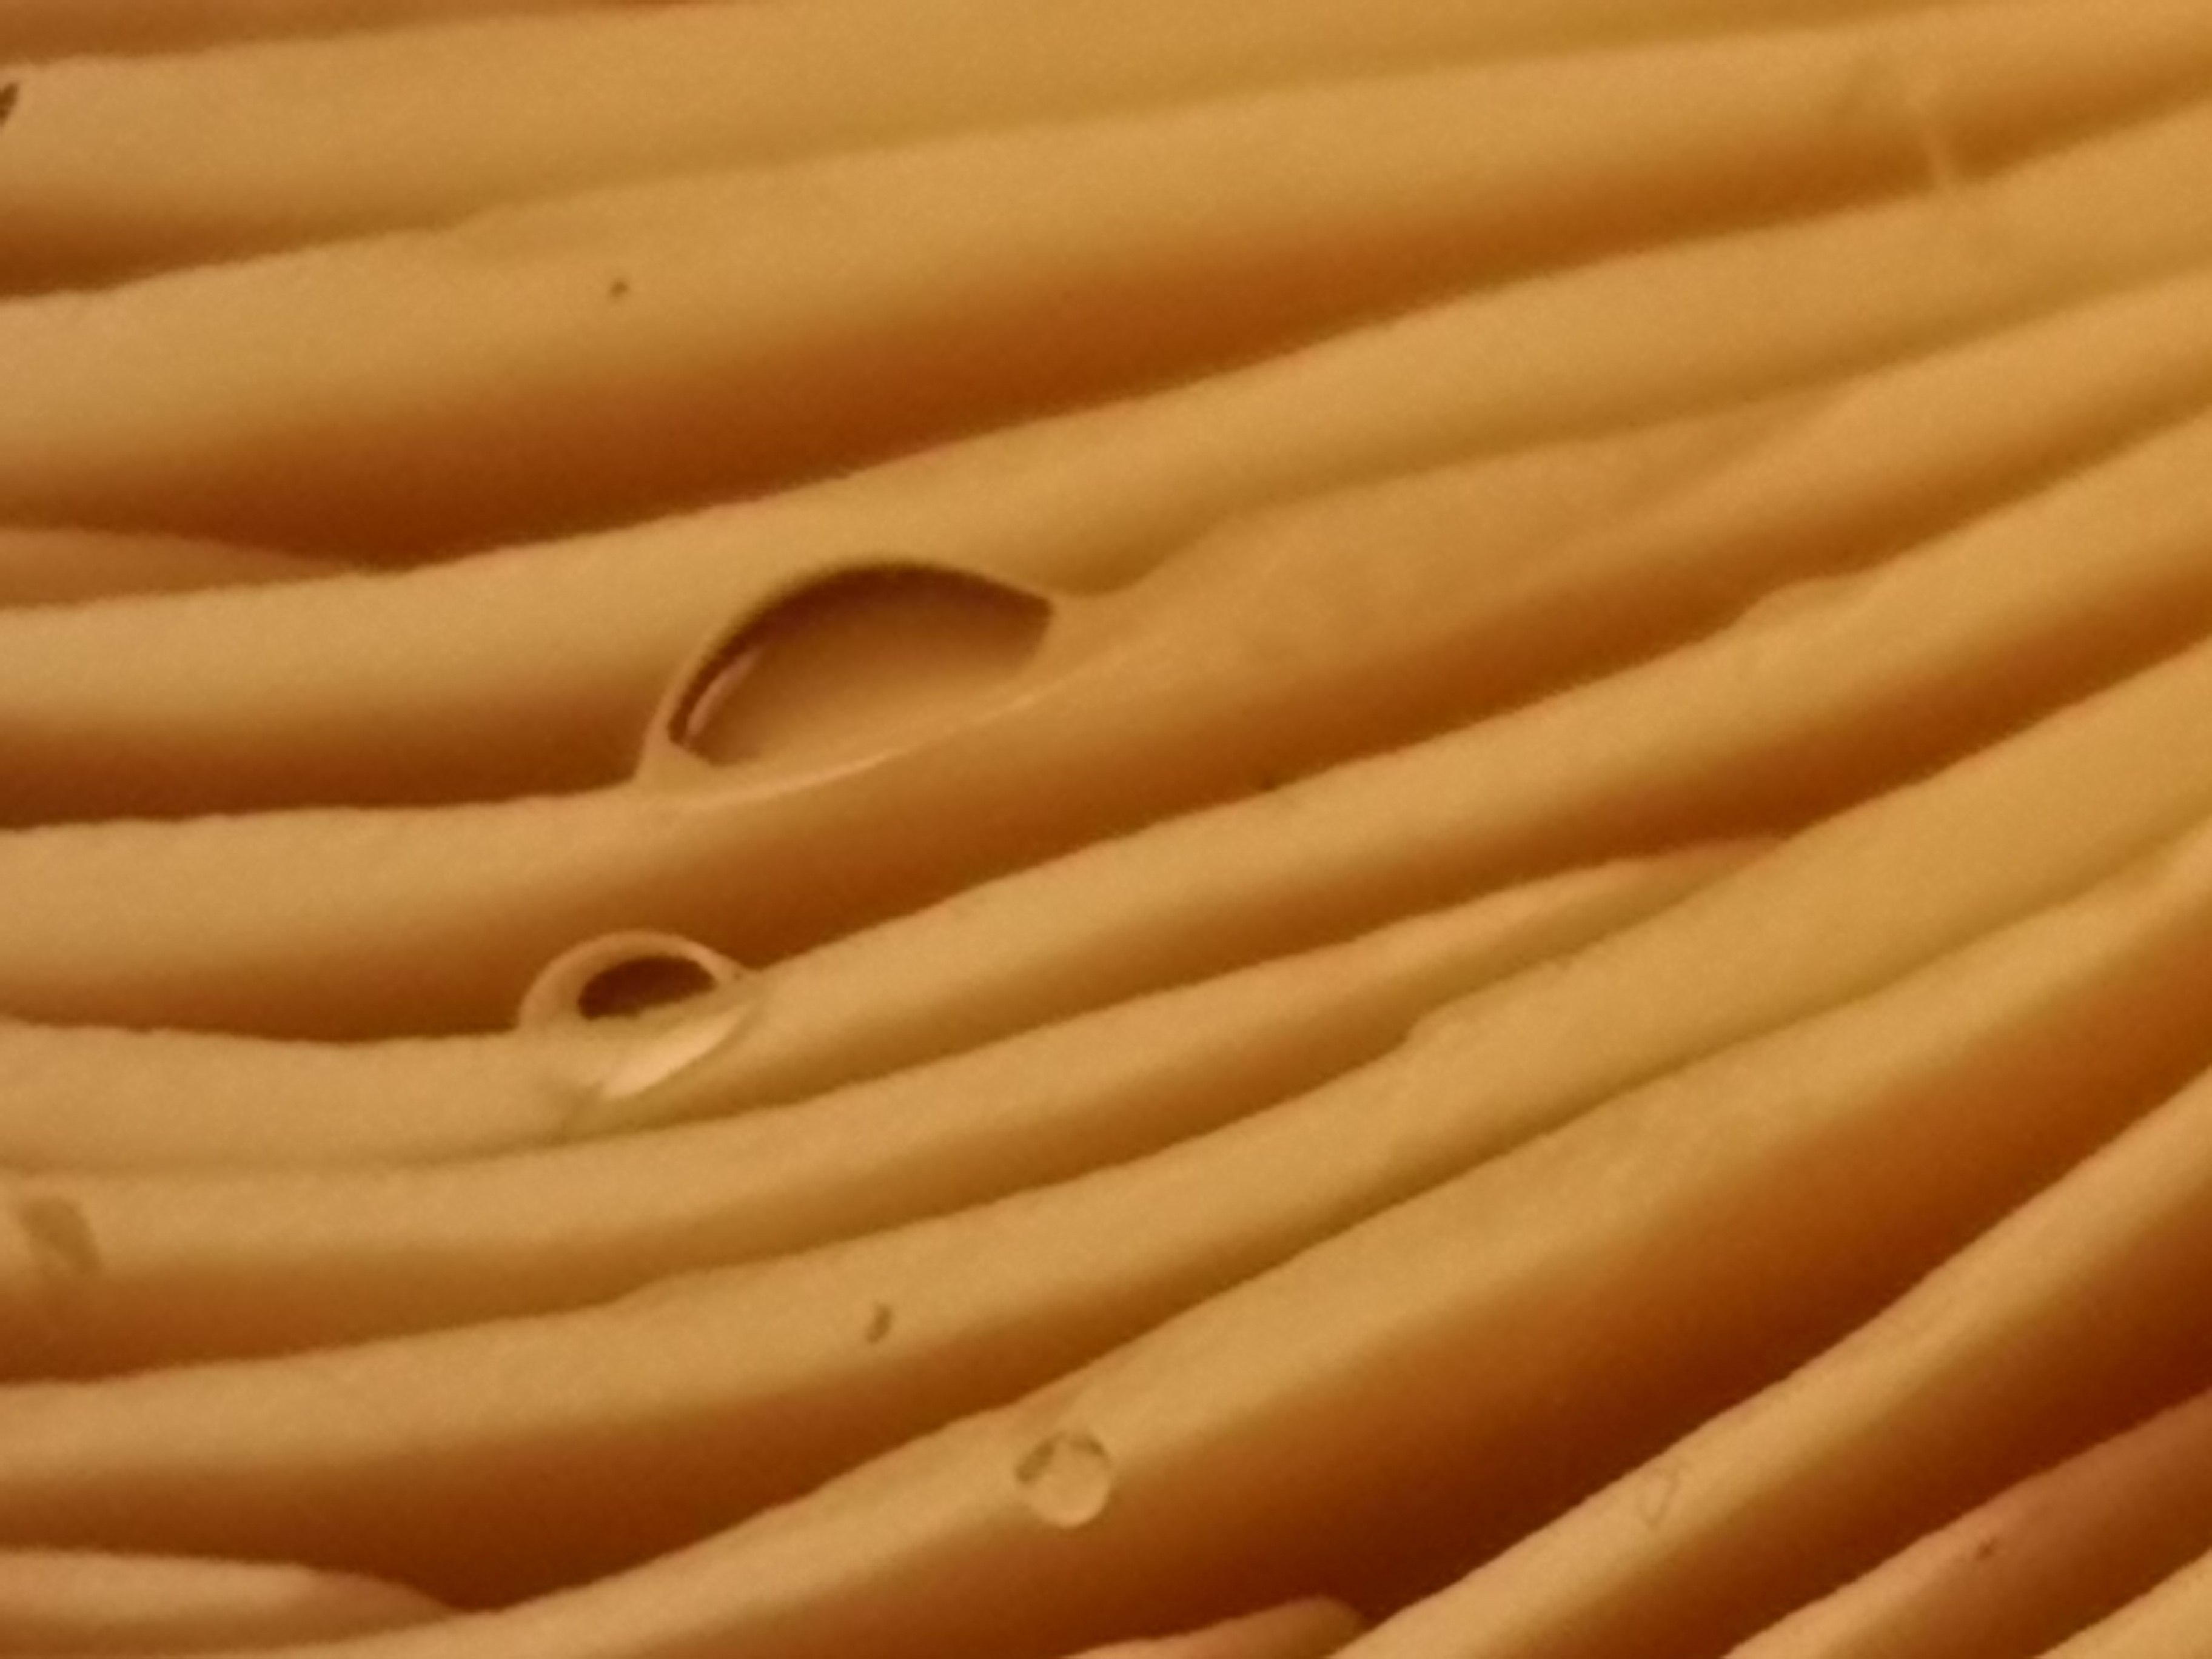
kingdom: Fungi
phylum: Basidiomycota
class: Agaricomycetes
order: Russulales
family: Russulaceae
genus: Lactarius
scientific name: Lactarius helvus
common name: mose-mælkehat
